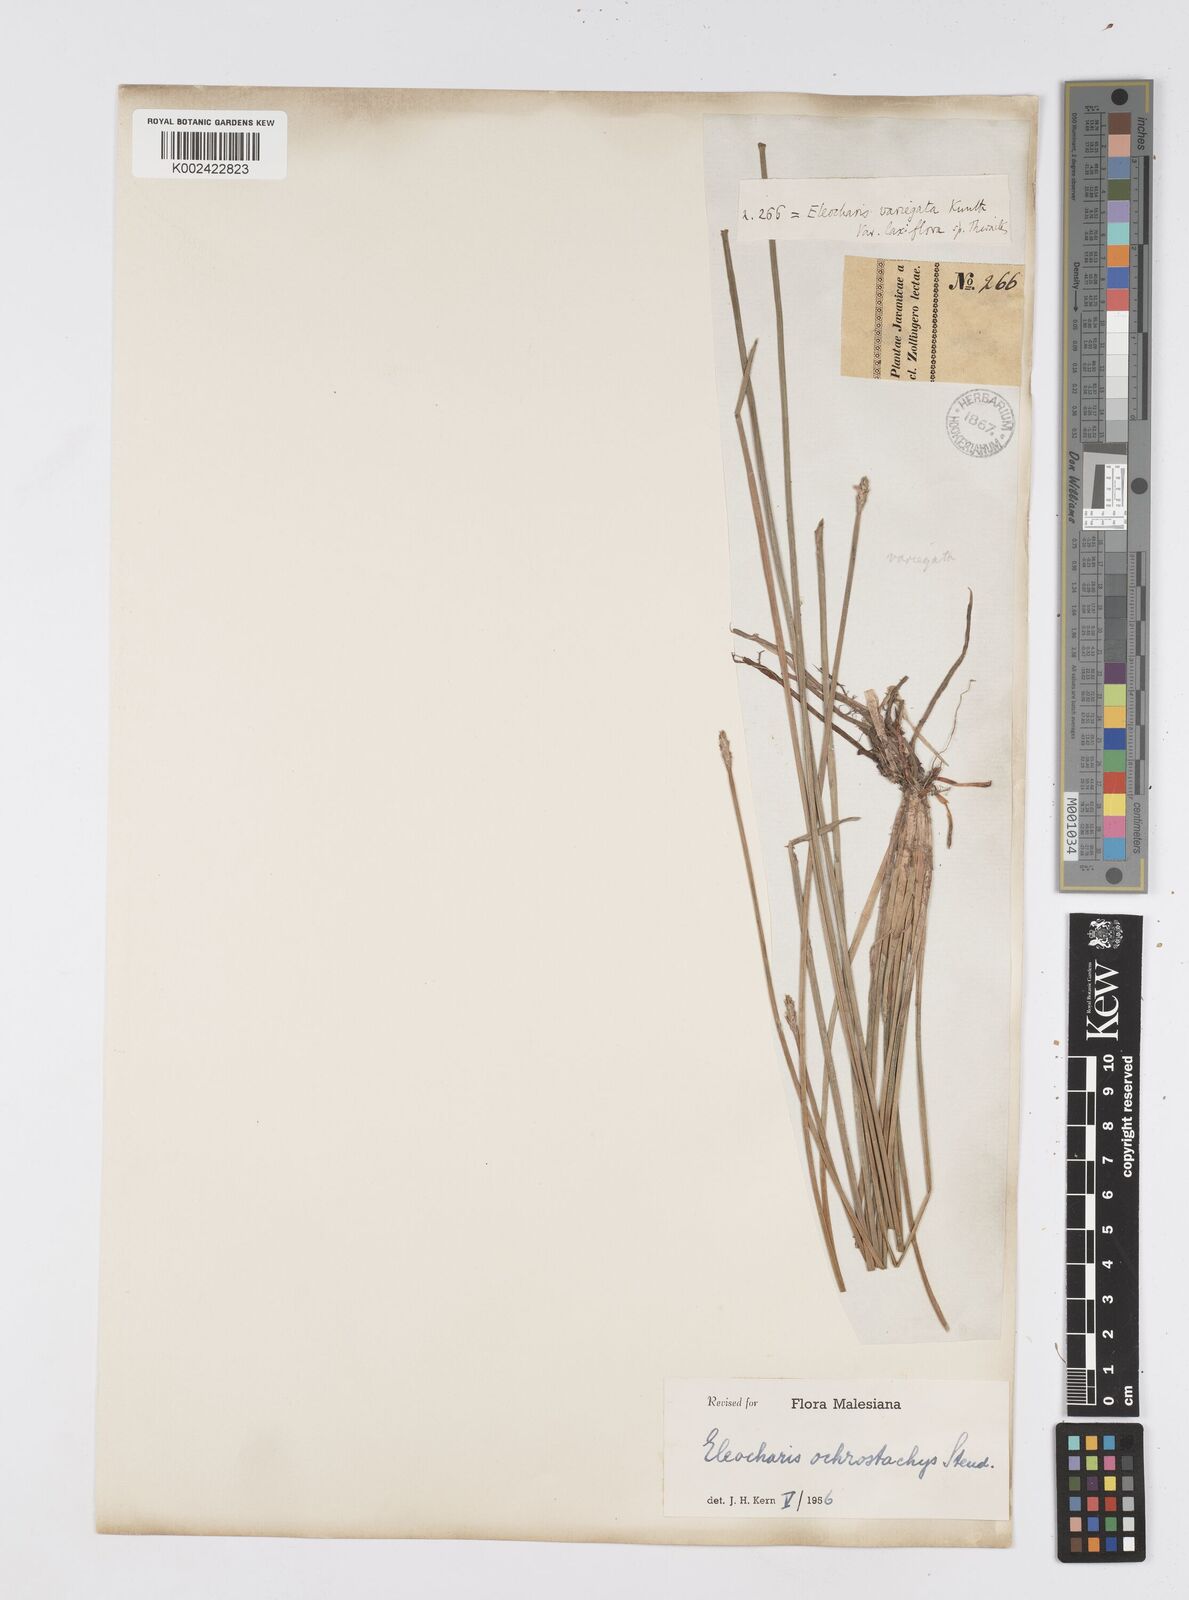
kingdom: Plantae
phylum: Tracheophyta
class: Liliopsida
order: Poales
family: Cyperaceae
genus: Eleocharis
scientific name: Eleocharis ochrostachys
